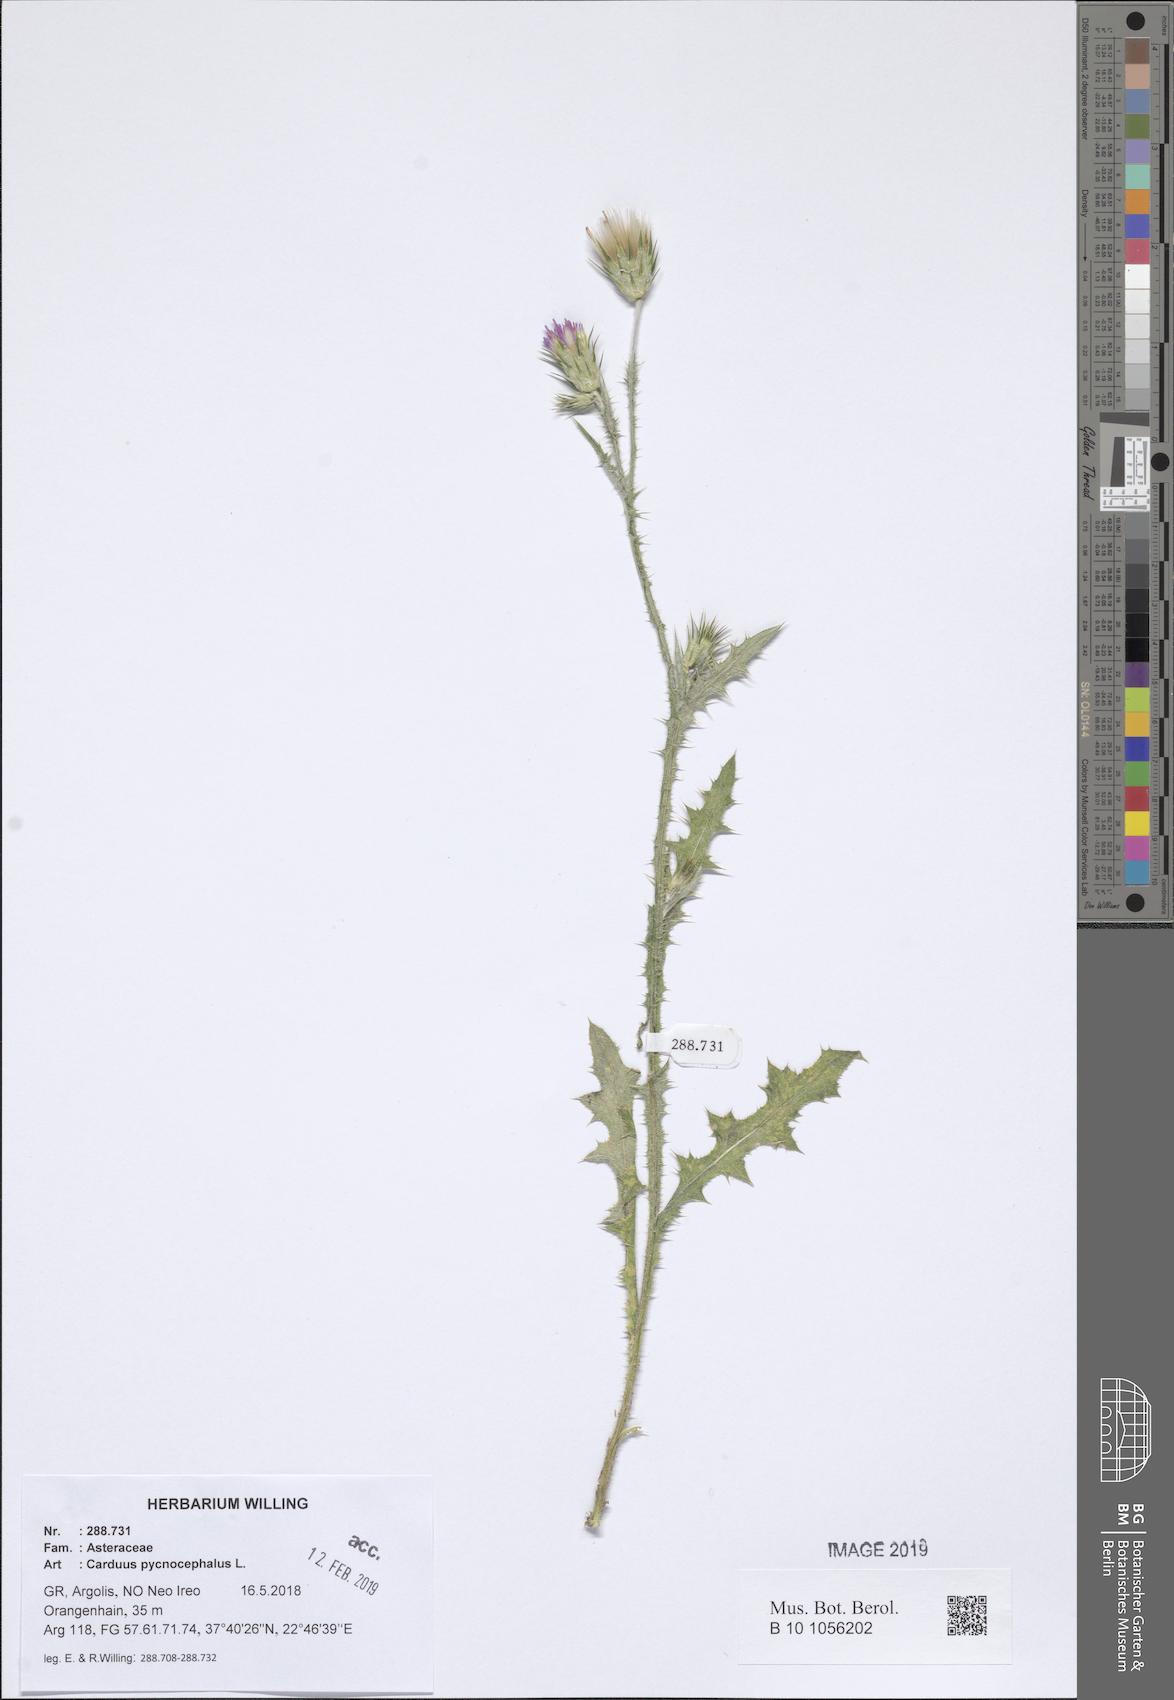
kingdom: Plantae
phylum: Tracheophyta
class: Magnoliopsida
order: Asterales
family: Asteraceae
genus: Carduus
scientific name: Carduus pycnocephalus
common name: Plymouth thistle
